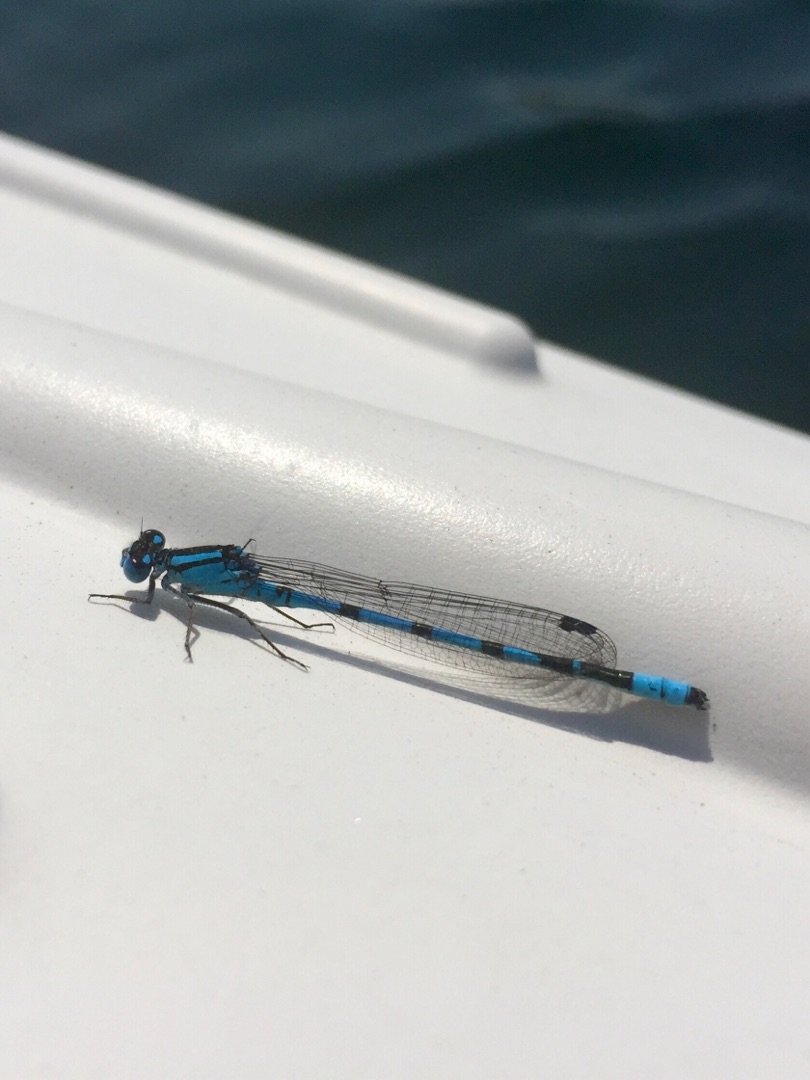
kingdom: Animalia
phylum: Arthropoda
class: Insecta
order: Odonata
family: Coenagrionidae
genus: Enallagma
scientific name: Enallagma cyathigerum
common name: Almindelig vandnymfe
